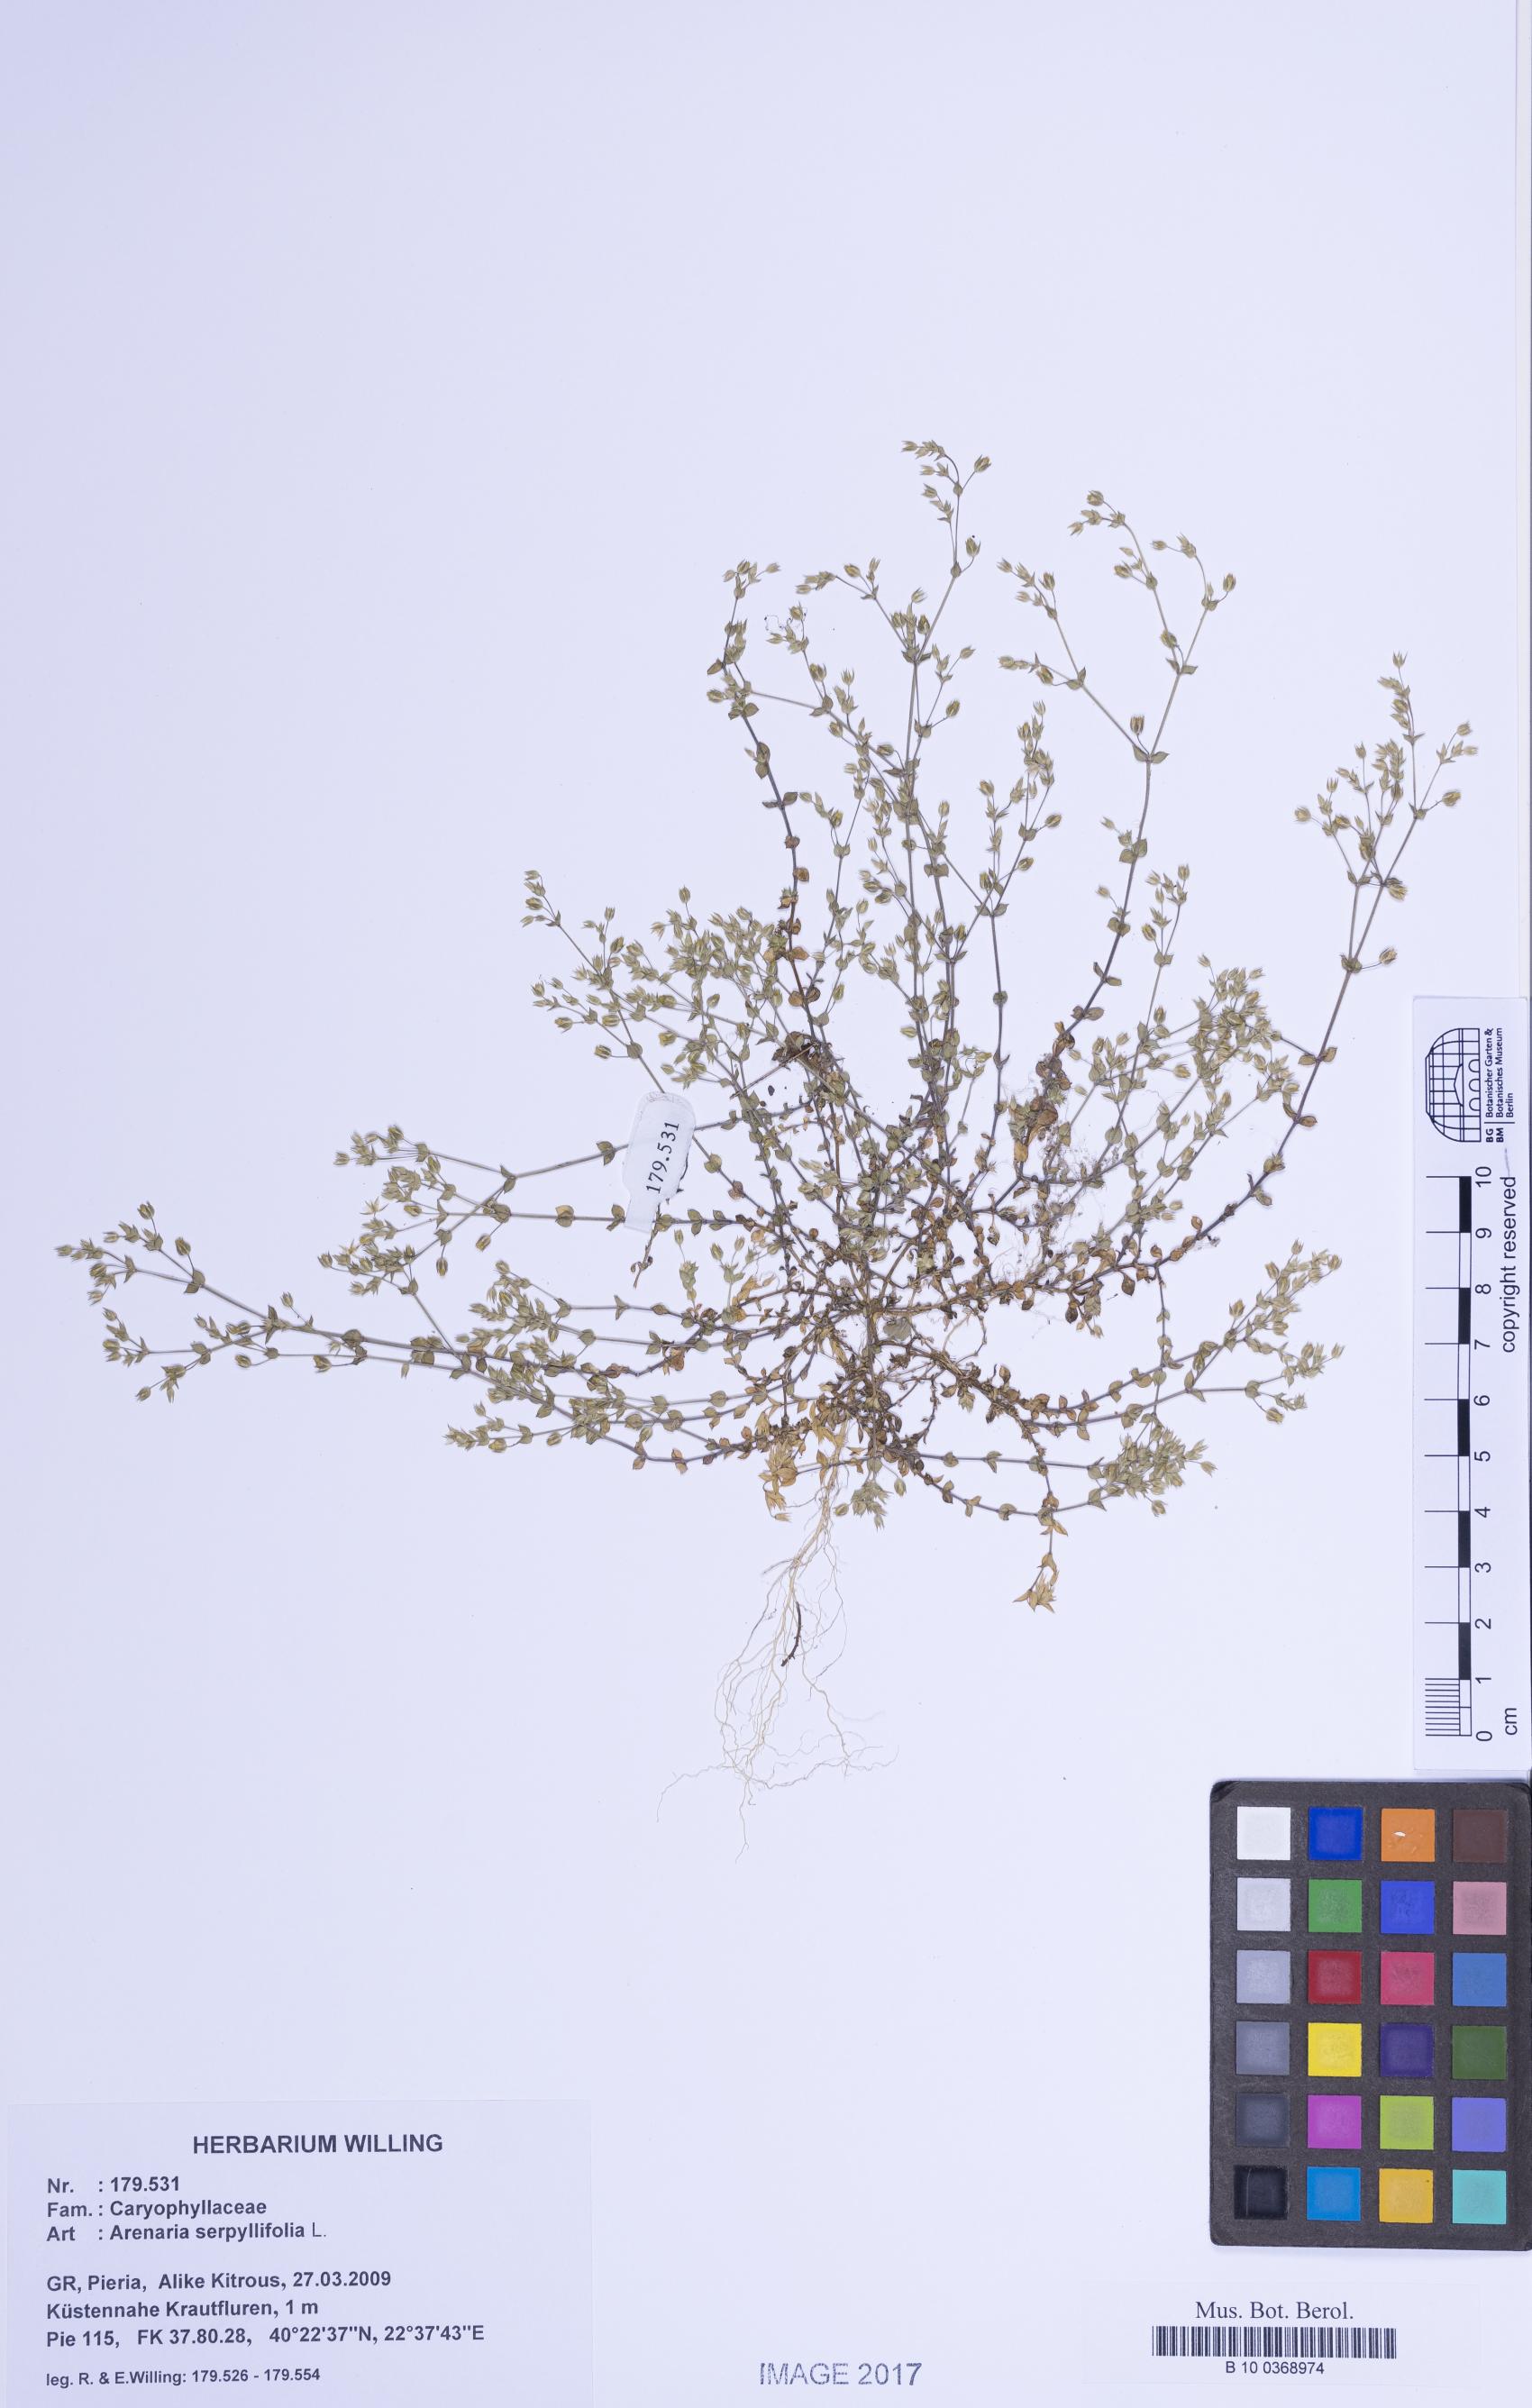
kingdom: Plantae
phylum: Tracheophyta
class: Magnoliopsida
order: Caryophyllales
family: Caryophyllaceae
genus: Arenaria
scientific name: Arenaria serpyllifolia
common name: Thyme-leaved sandwort
